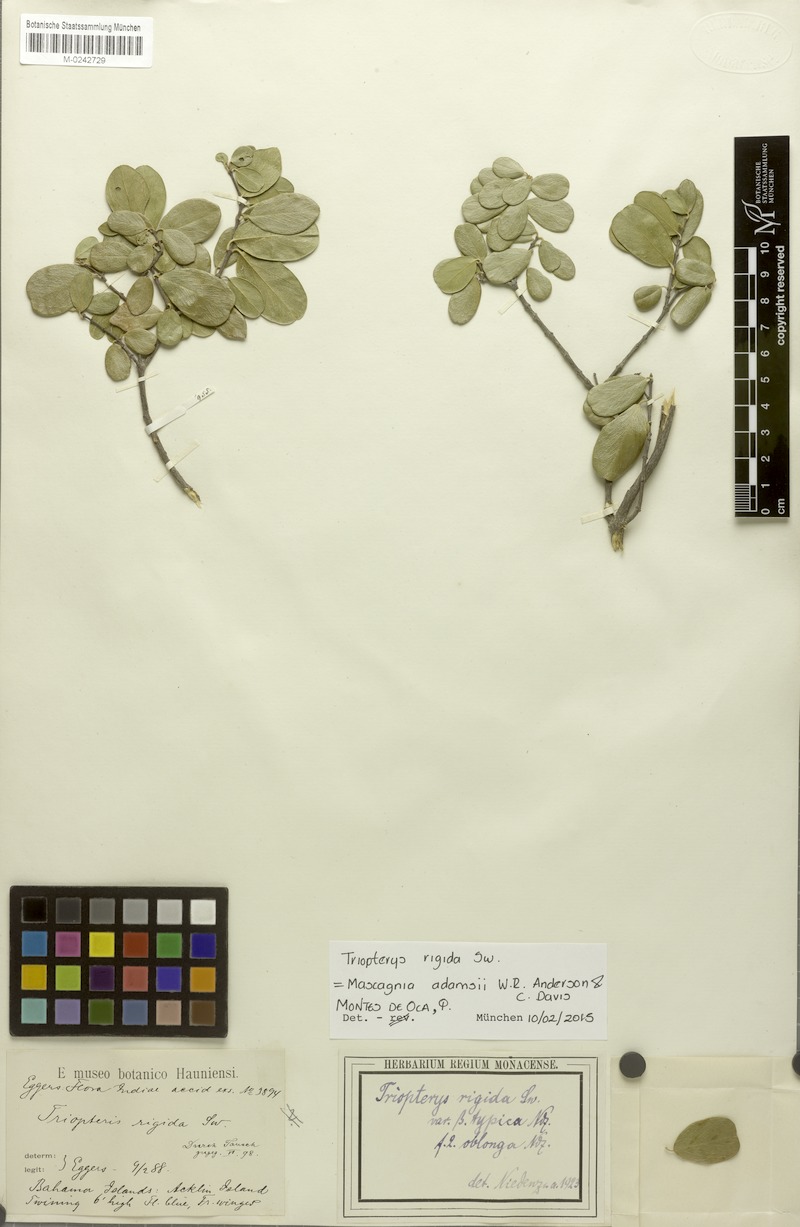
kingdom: Plantae
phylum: Tracheophyta
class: Magnoliopsida
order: Malpighiales
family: Malpighiaceae
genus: Mascagnia
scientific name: Mascagnia adamsii
